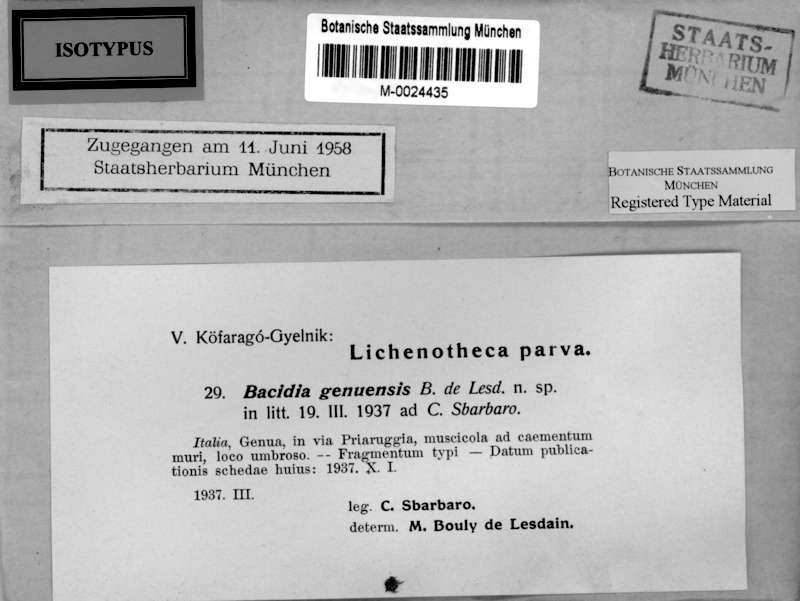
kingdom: Fungi
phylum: Ascomycota
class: Lecanoromycetes
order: Lecanorales
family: Ramalinaceae
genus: Bacidina
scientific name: Bacidina egenula
